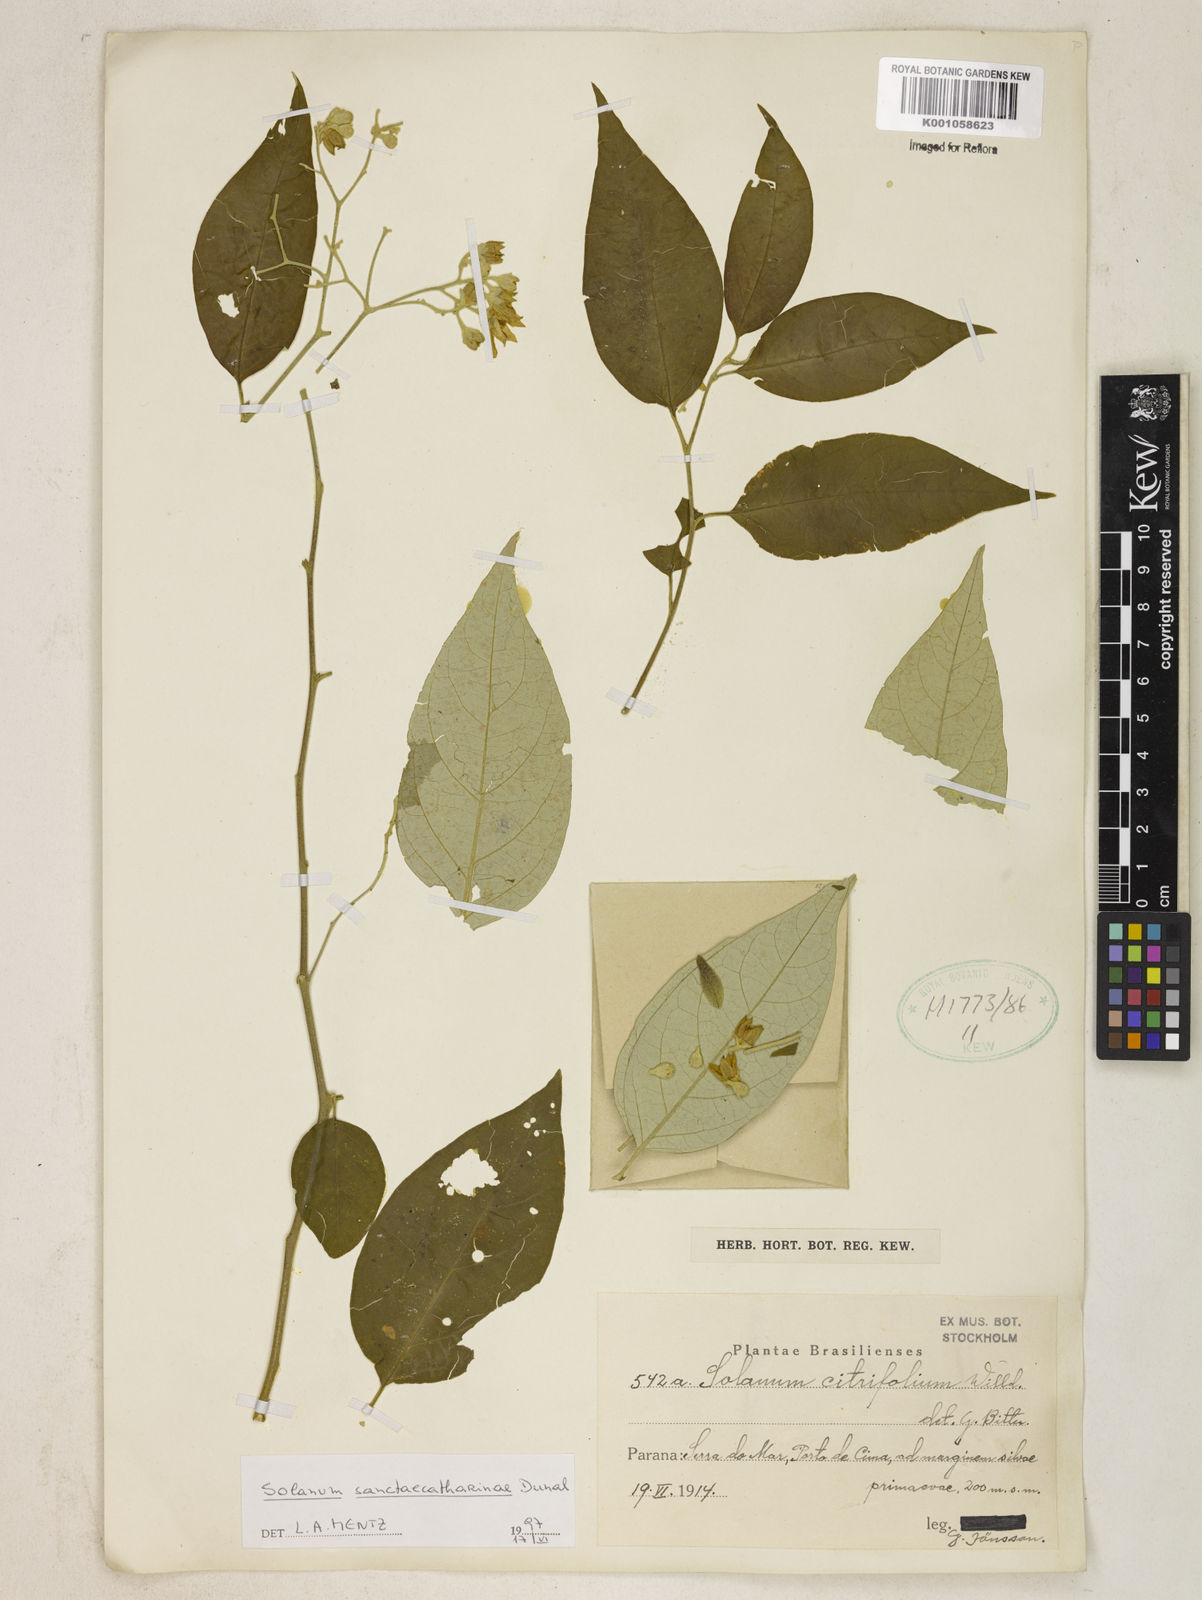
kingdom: Plantae
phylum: Tracheophyta
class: Magnoliopsida
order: Solanales
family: Solanaceae
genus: Solanum
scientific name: Solanum sanctae-catharinae
